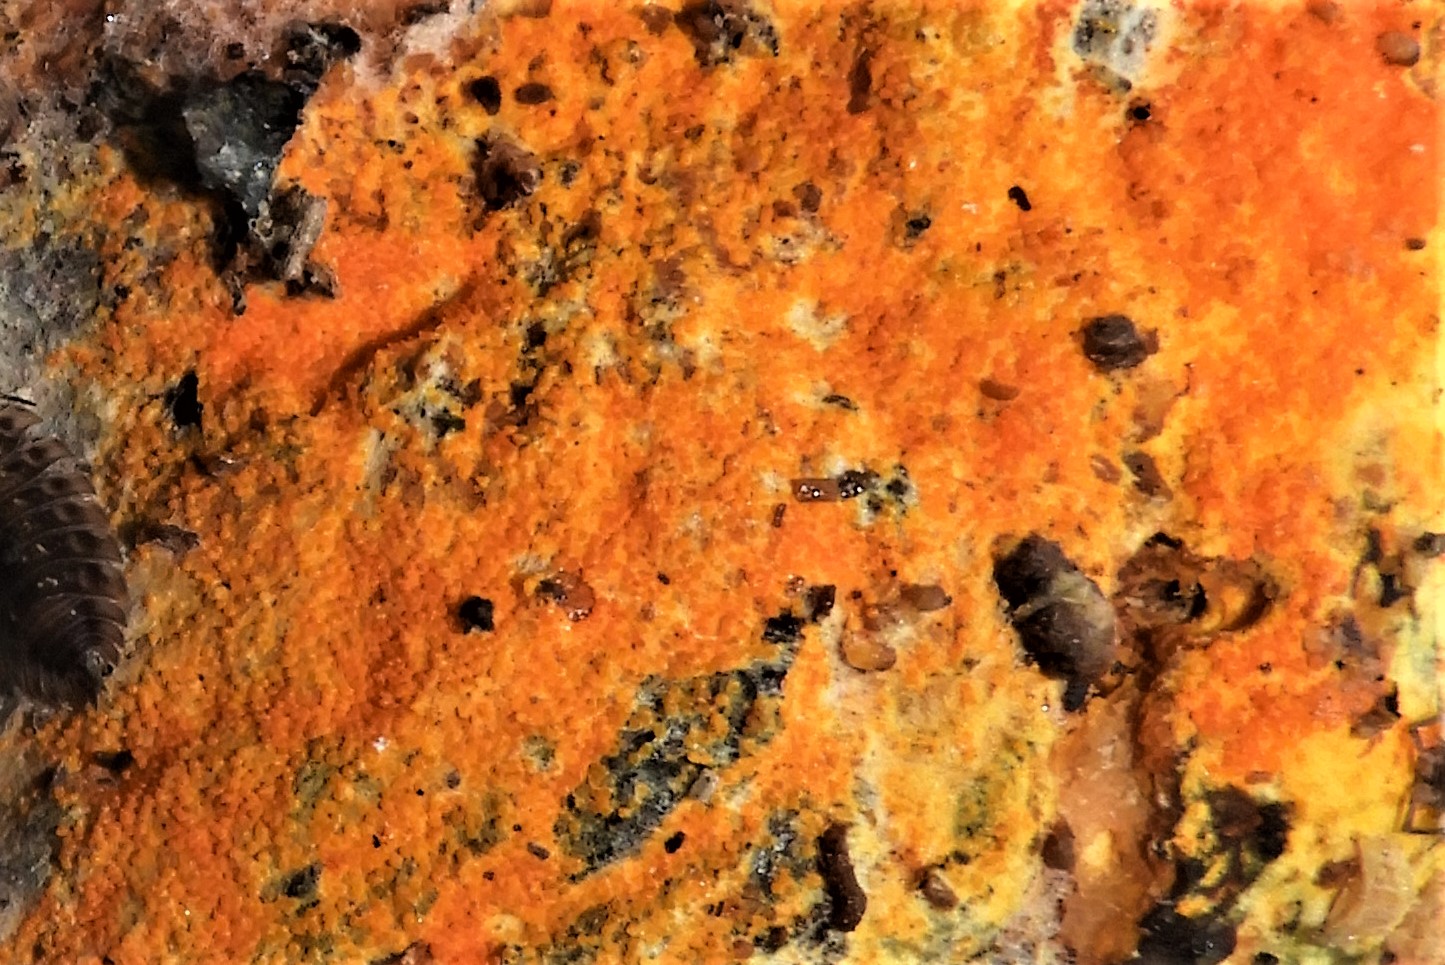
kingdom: Fungi
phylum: Ascomycota
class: Sordariomycetes
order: Hypocreales
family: Hypocreaceae
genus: Hypomyces
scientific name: Hypomyces aurantius
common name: almindelig snylteskorpe
